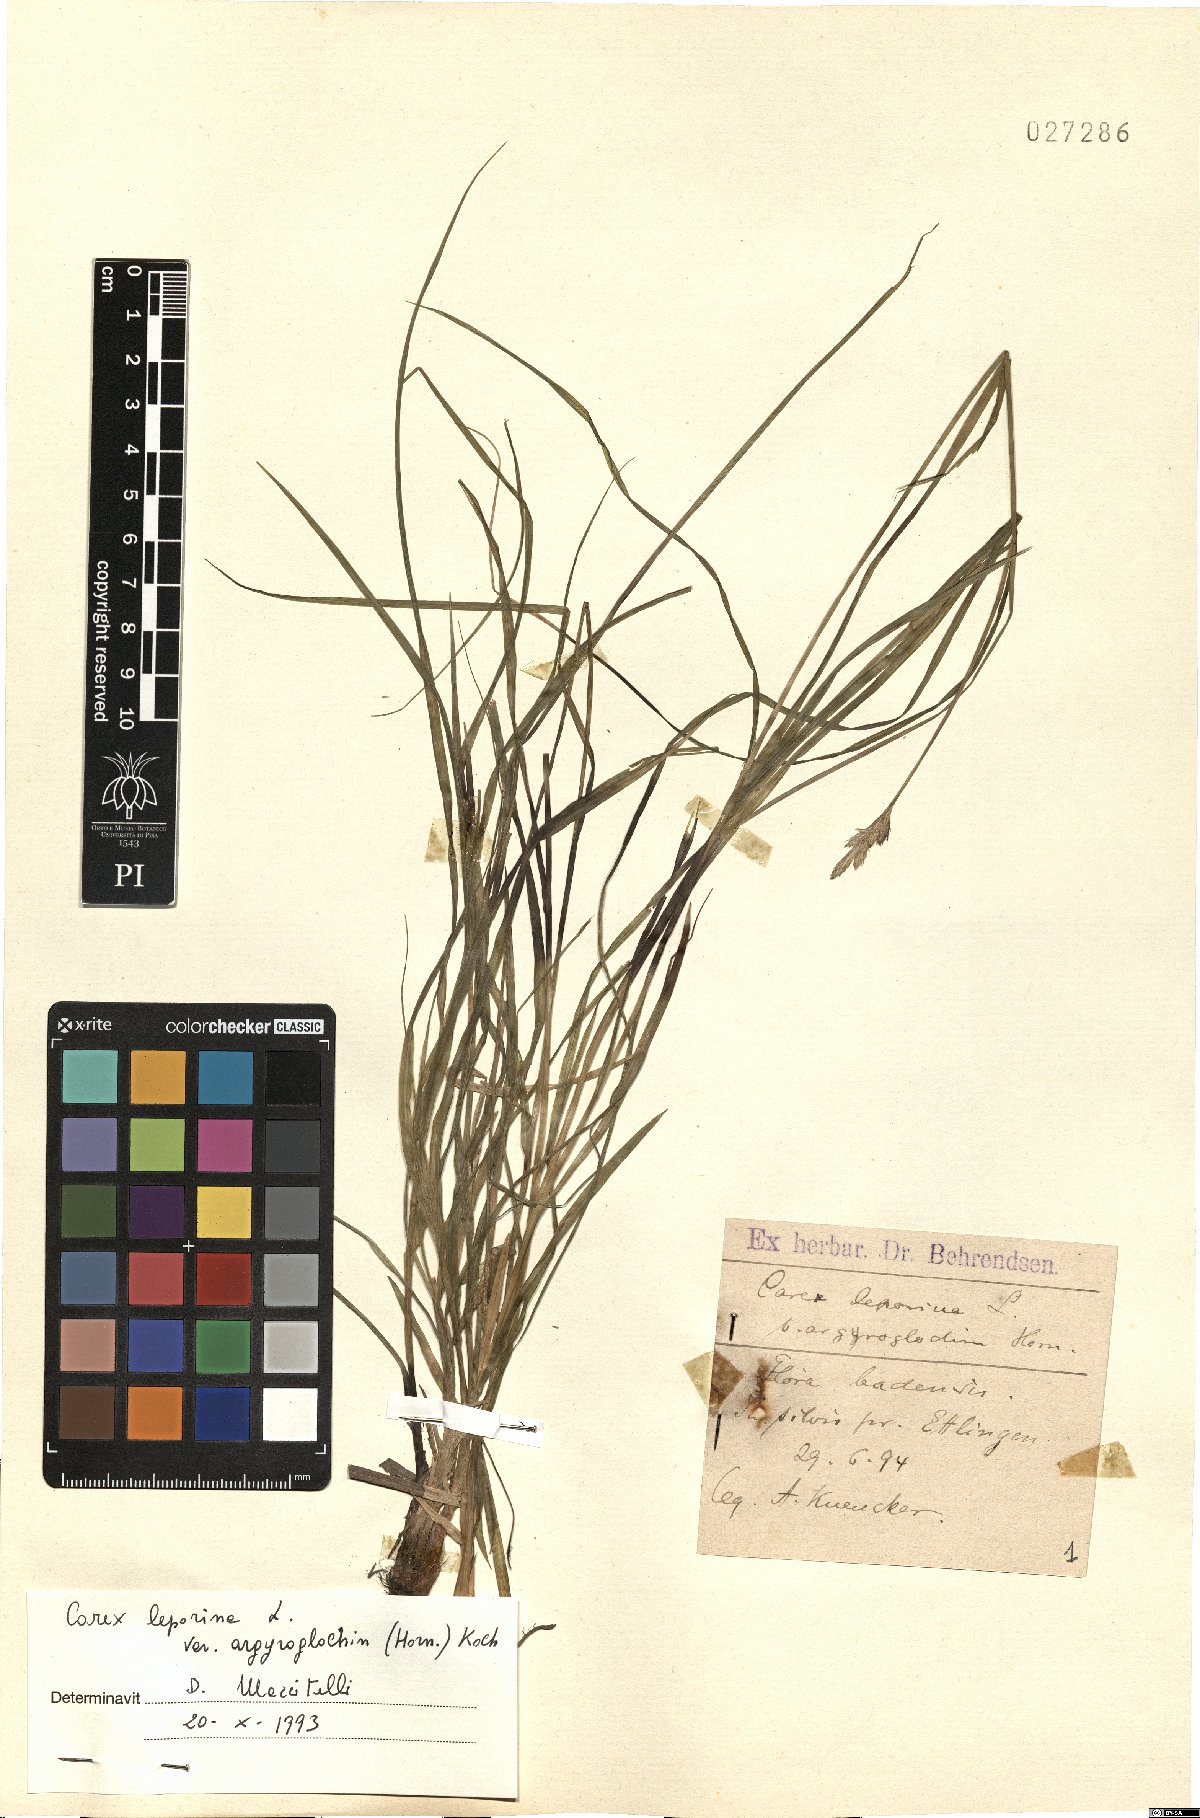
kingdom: Plantae
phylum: Tracheophyta
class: Liliopsida
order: Poales
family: Cyperaceae
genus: Carex
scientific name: Carex leporina
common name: Oval sedge
